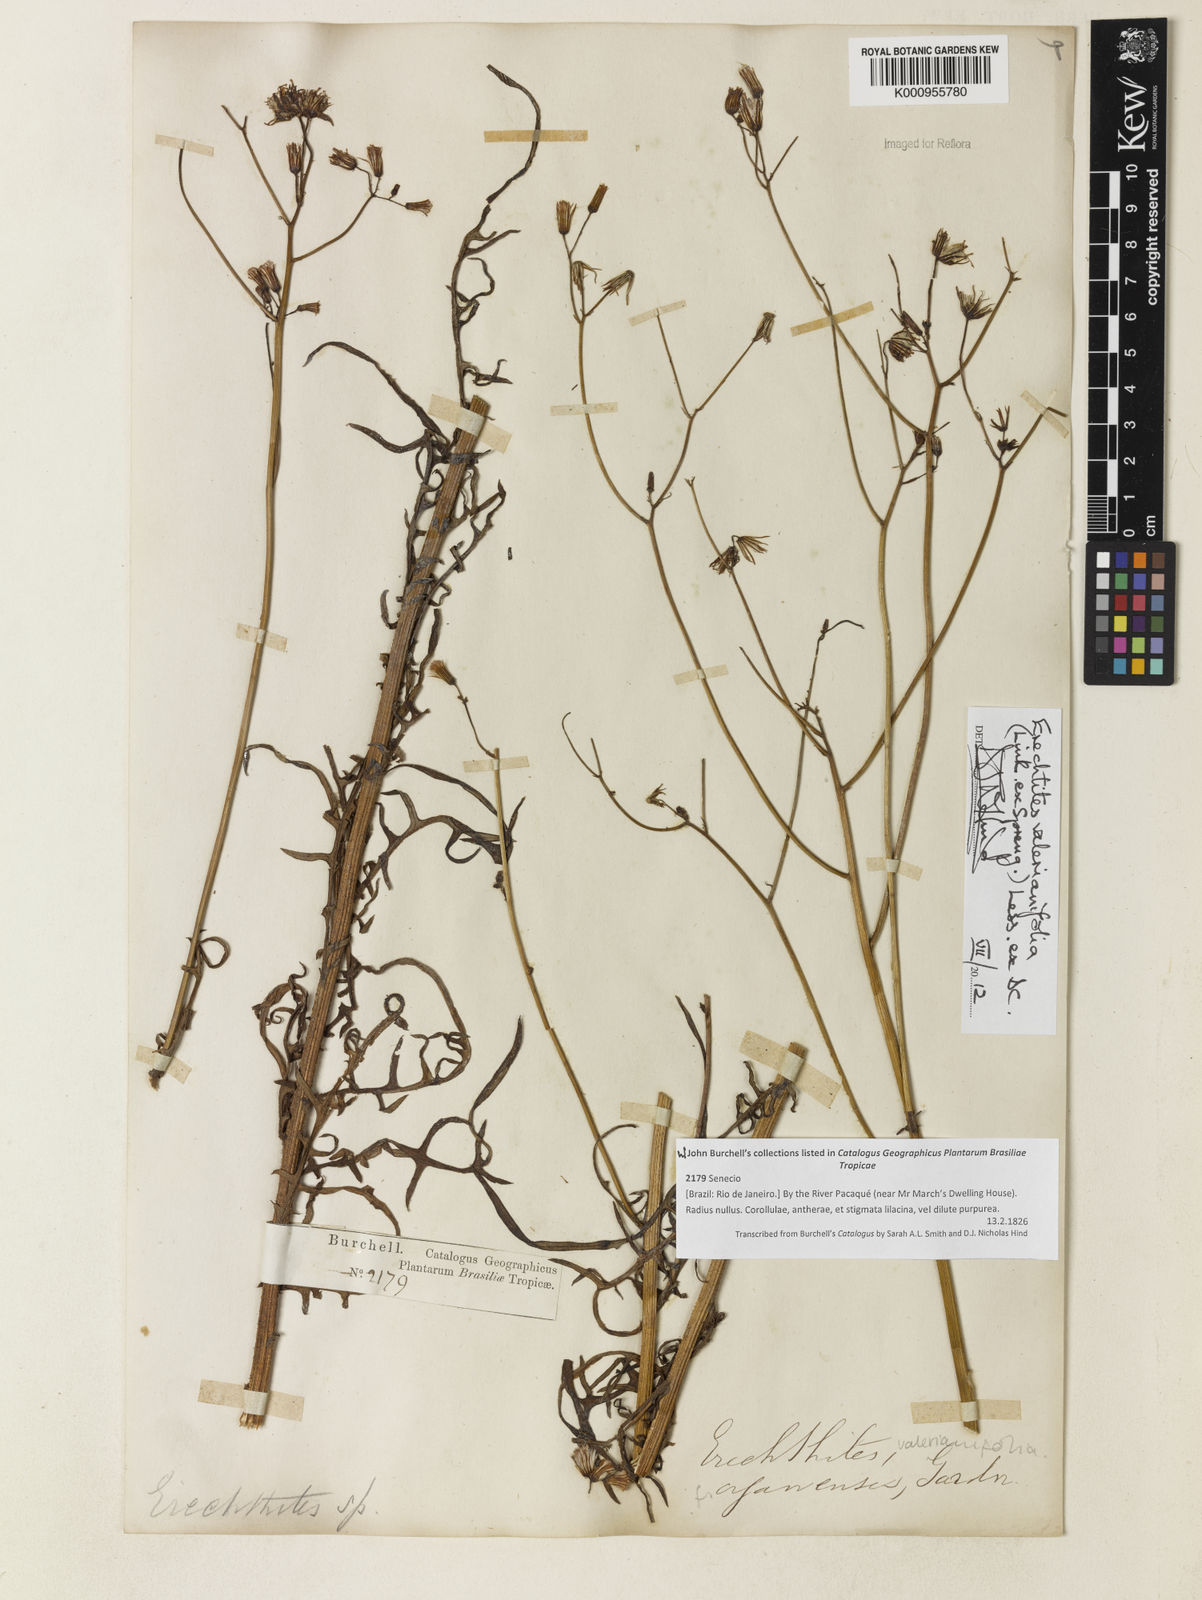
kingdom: Plantae
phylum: Tracheophyta
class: Magnoliopsida
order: Asterales
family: Asteraceae
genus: Erechtites
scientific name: Erechtites valerianifolius
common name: Tropical burnweed
